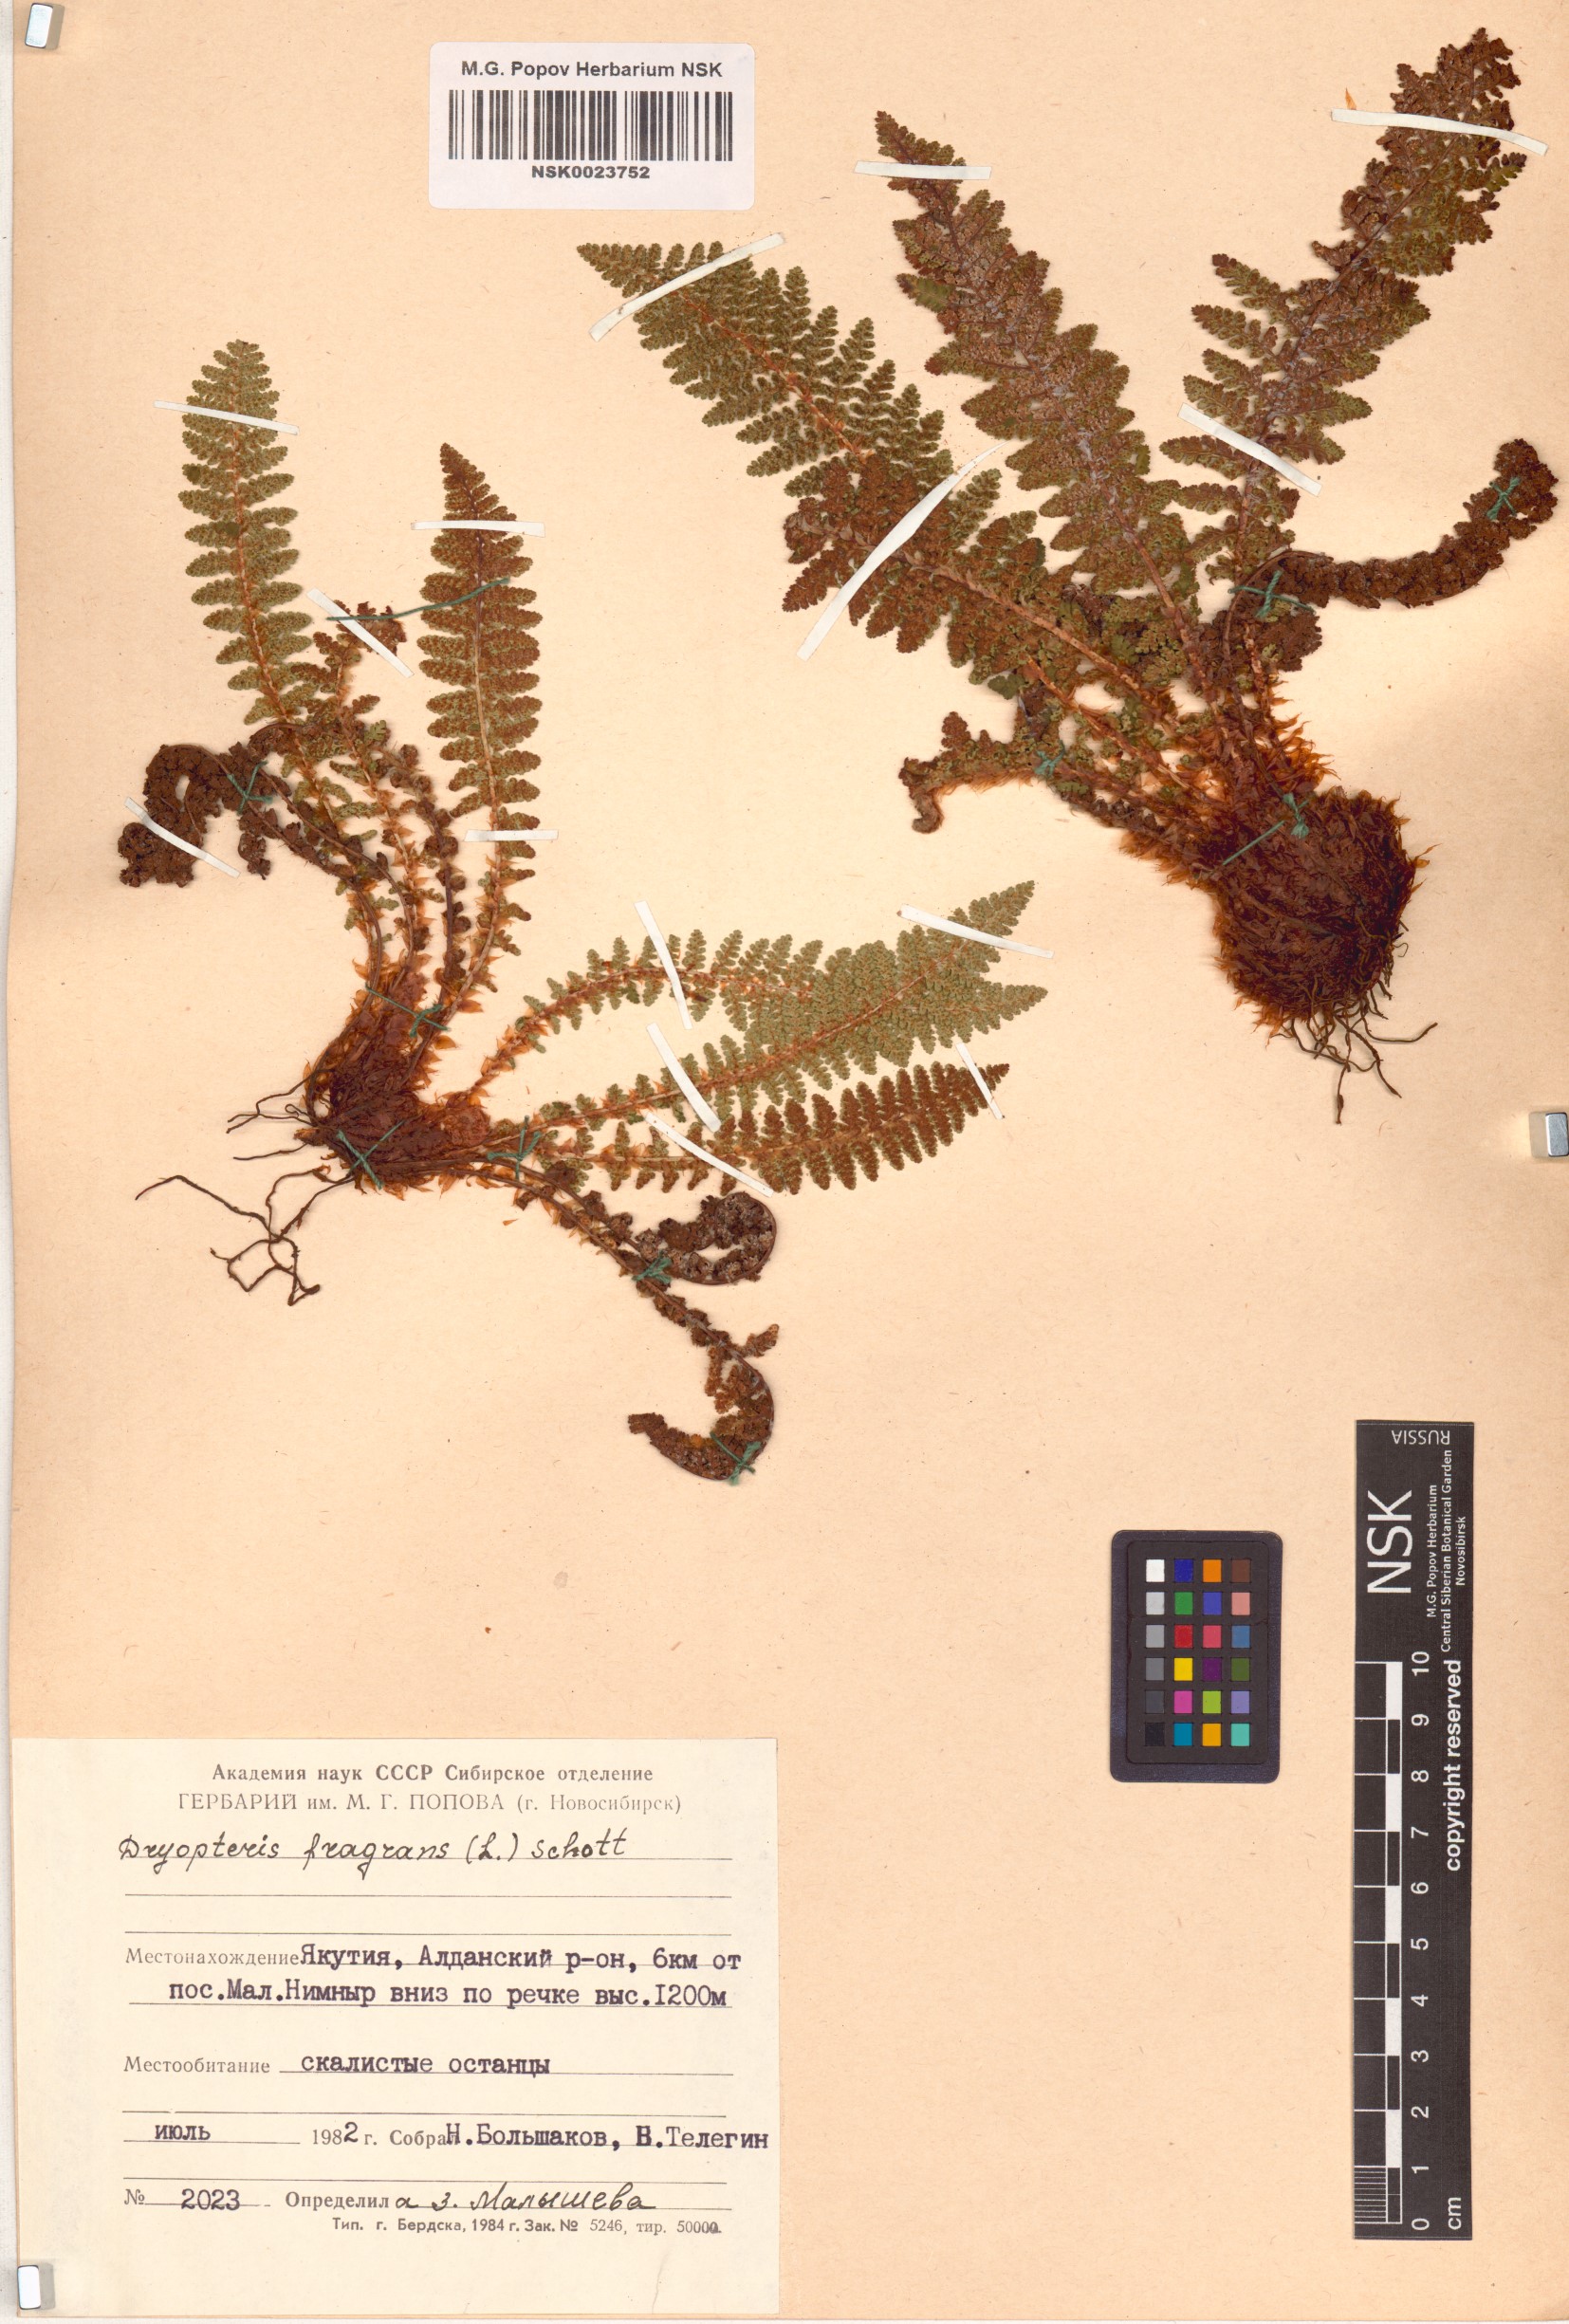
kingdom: Plantae
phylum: Tracheophyta
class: Polypodiopsida
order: Polypodiales
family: Dryopteridaceae
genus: Dryopteris
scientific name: Dryopteris fragrans
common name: Fragrant wood fern
